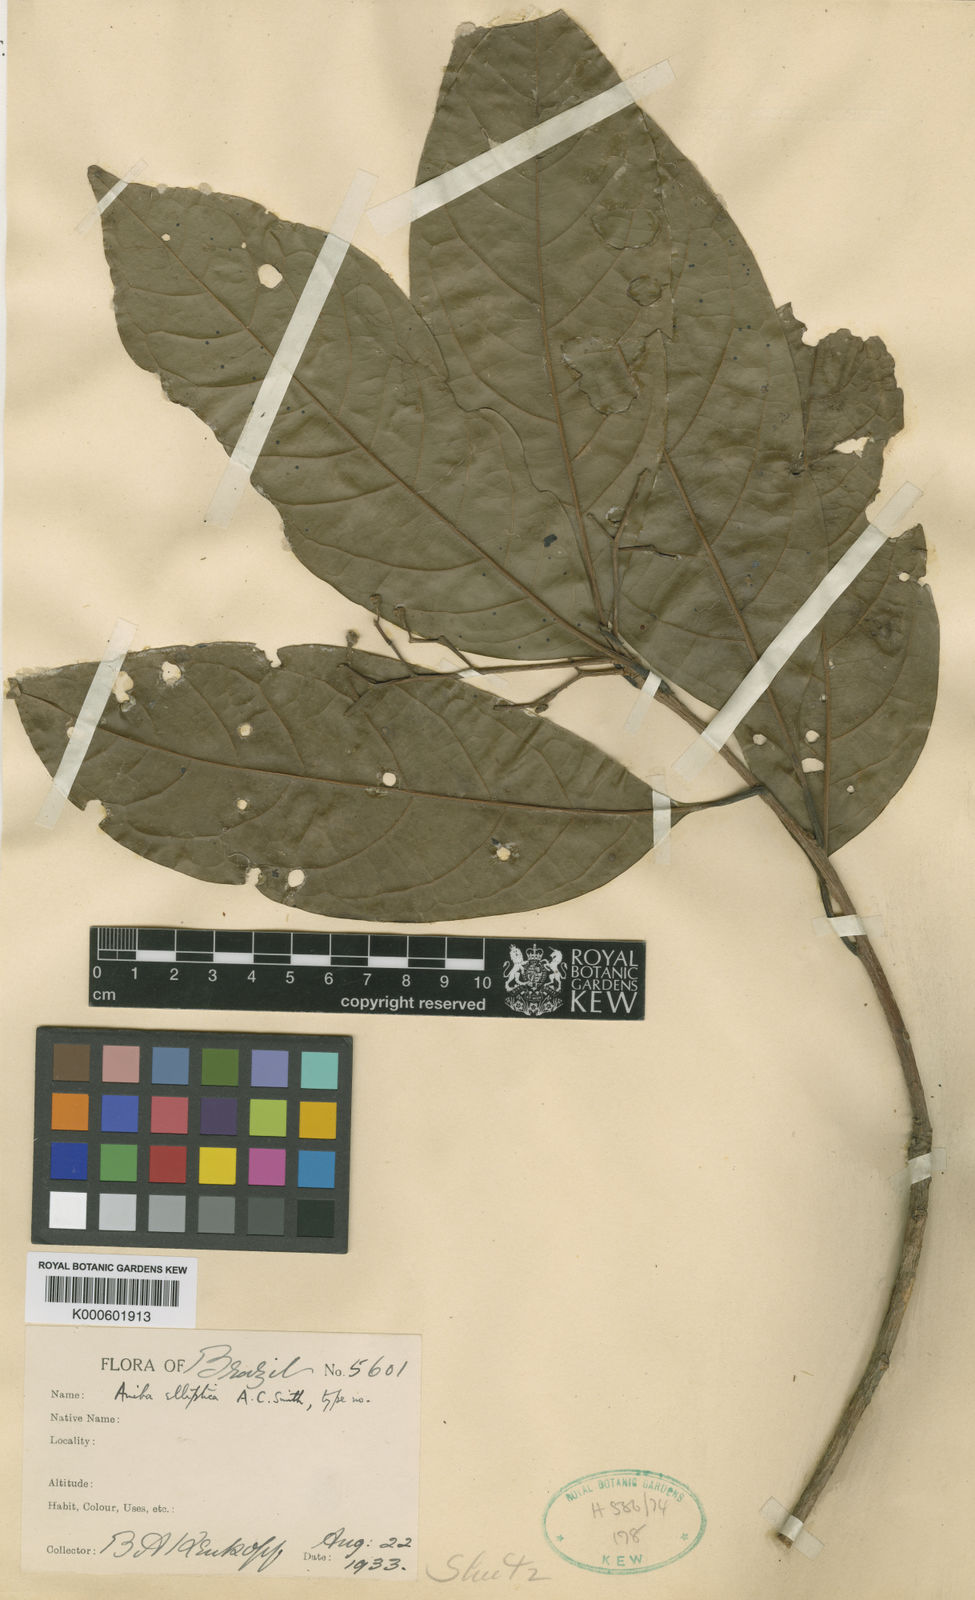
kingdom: Plantae
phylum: Tracheophyta
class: Magnoliopsida
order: Laurales
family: Lauraceae
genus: Aniba
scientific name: Aniba canelilla
